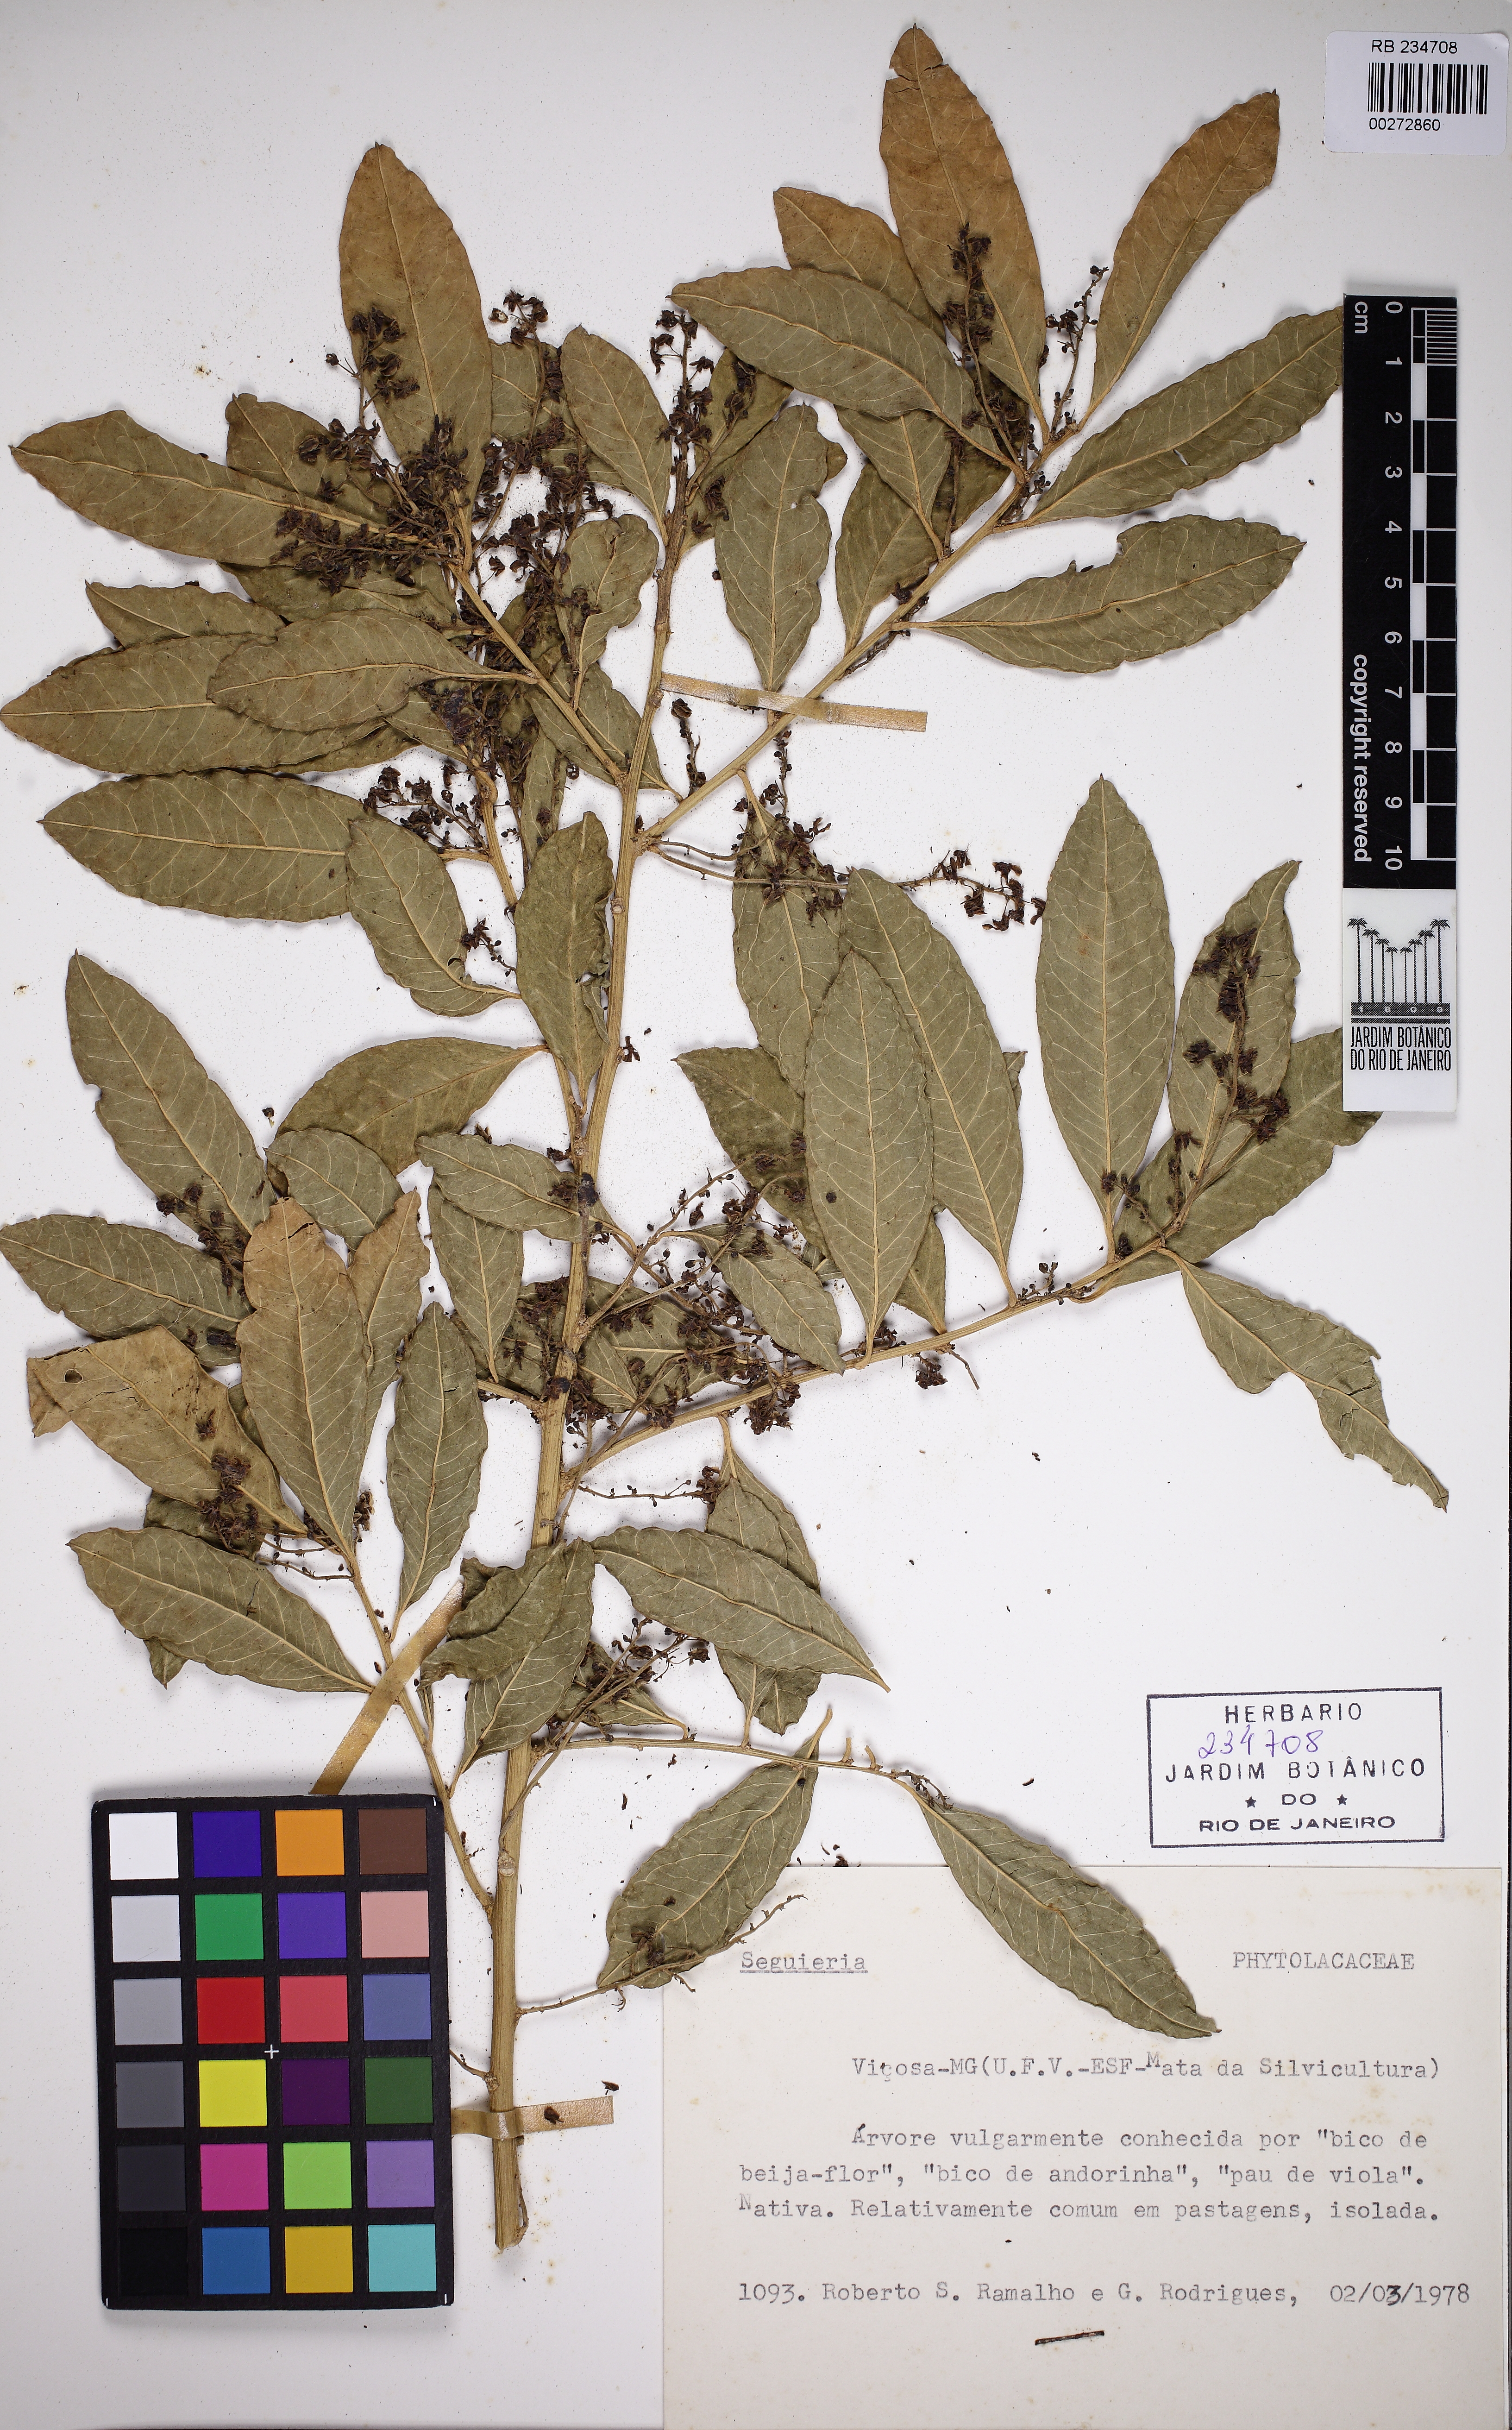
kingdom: Plantae
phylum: Tracheophyta
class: Magnoliopsida
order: Caryophyllales
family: Phytolaccaceae
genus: Seguieria
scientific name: Seguieria
